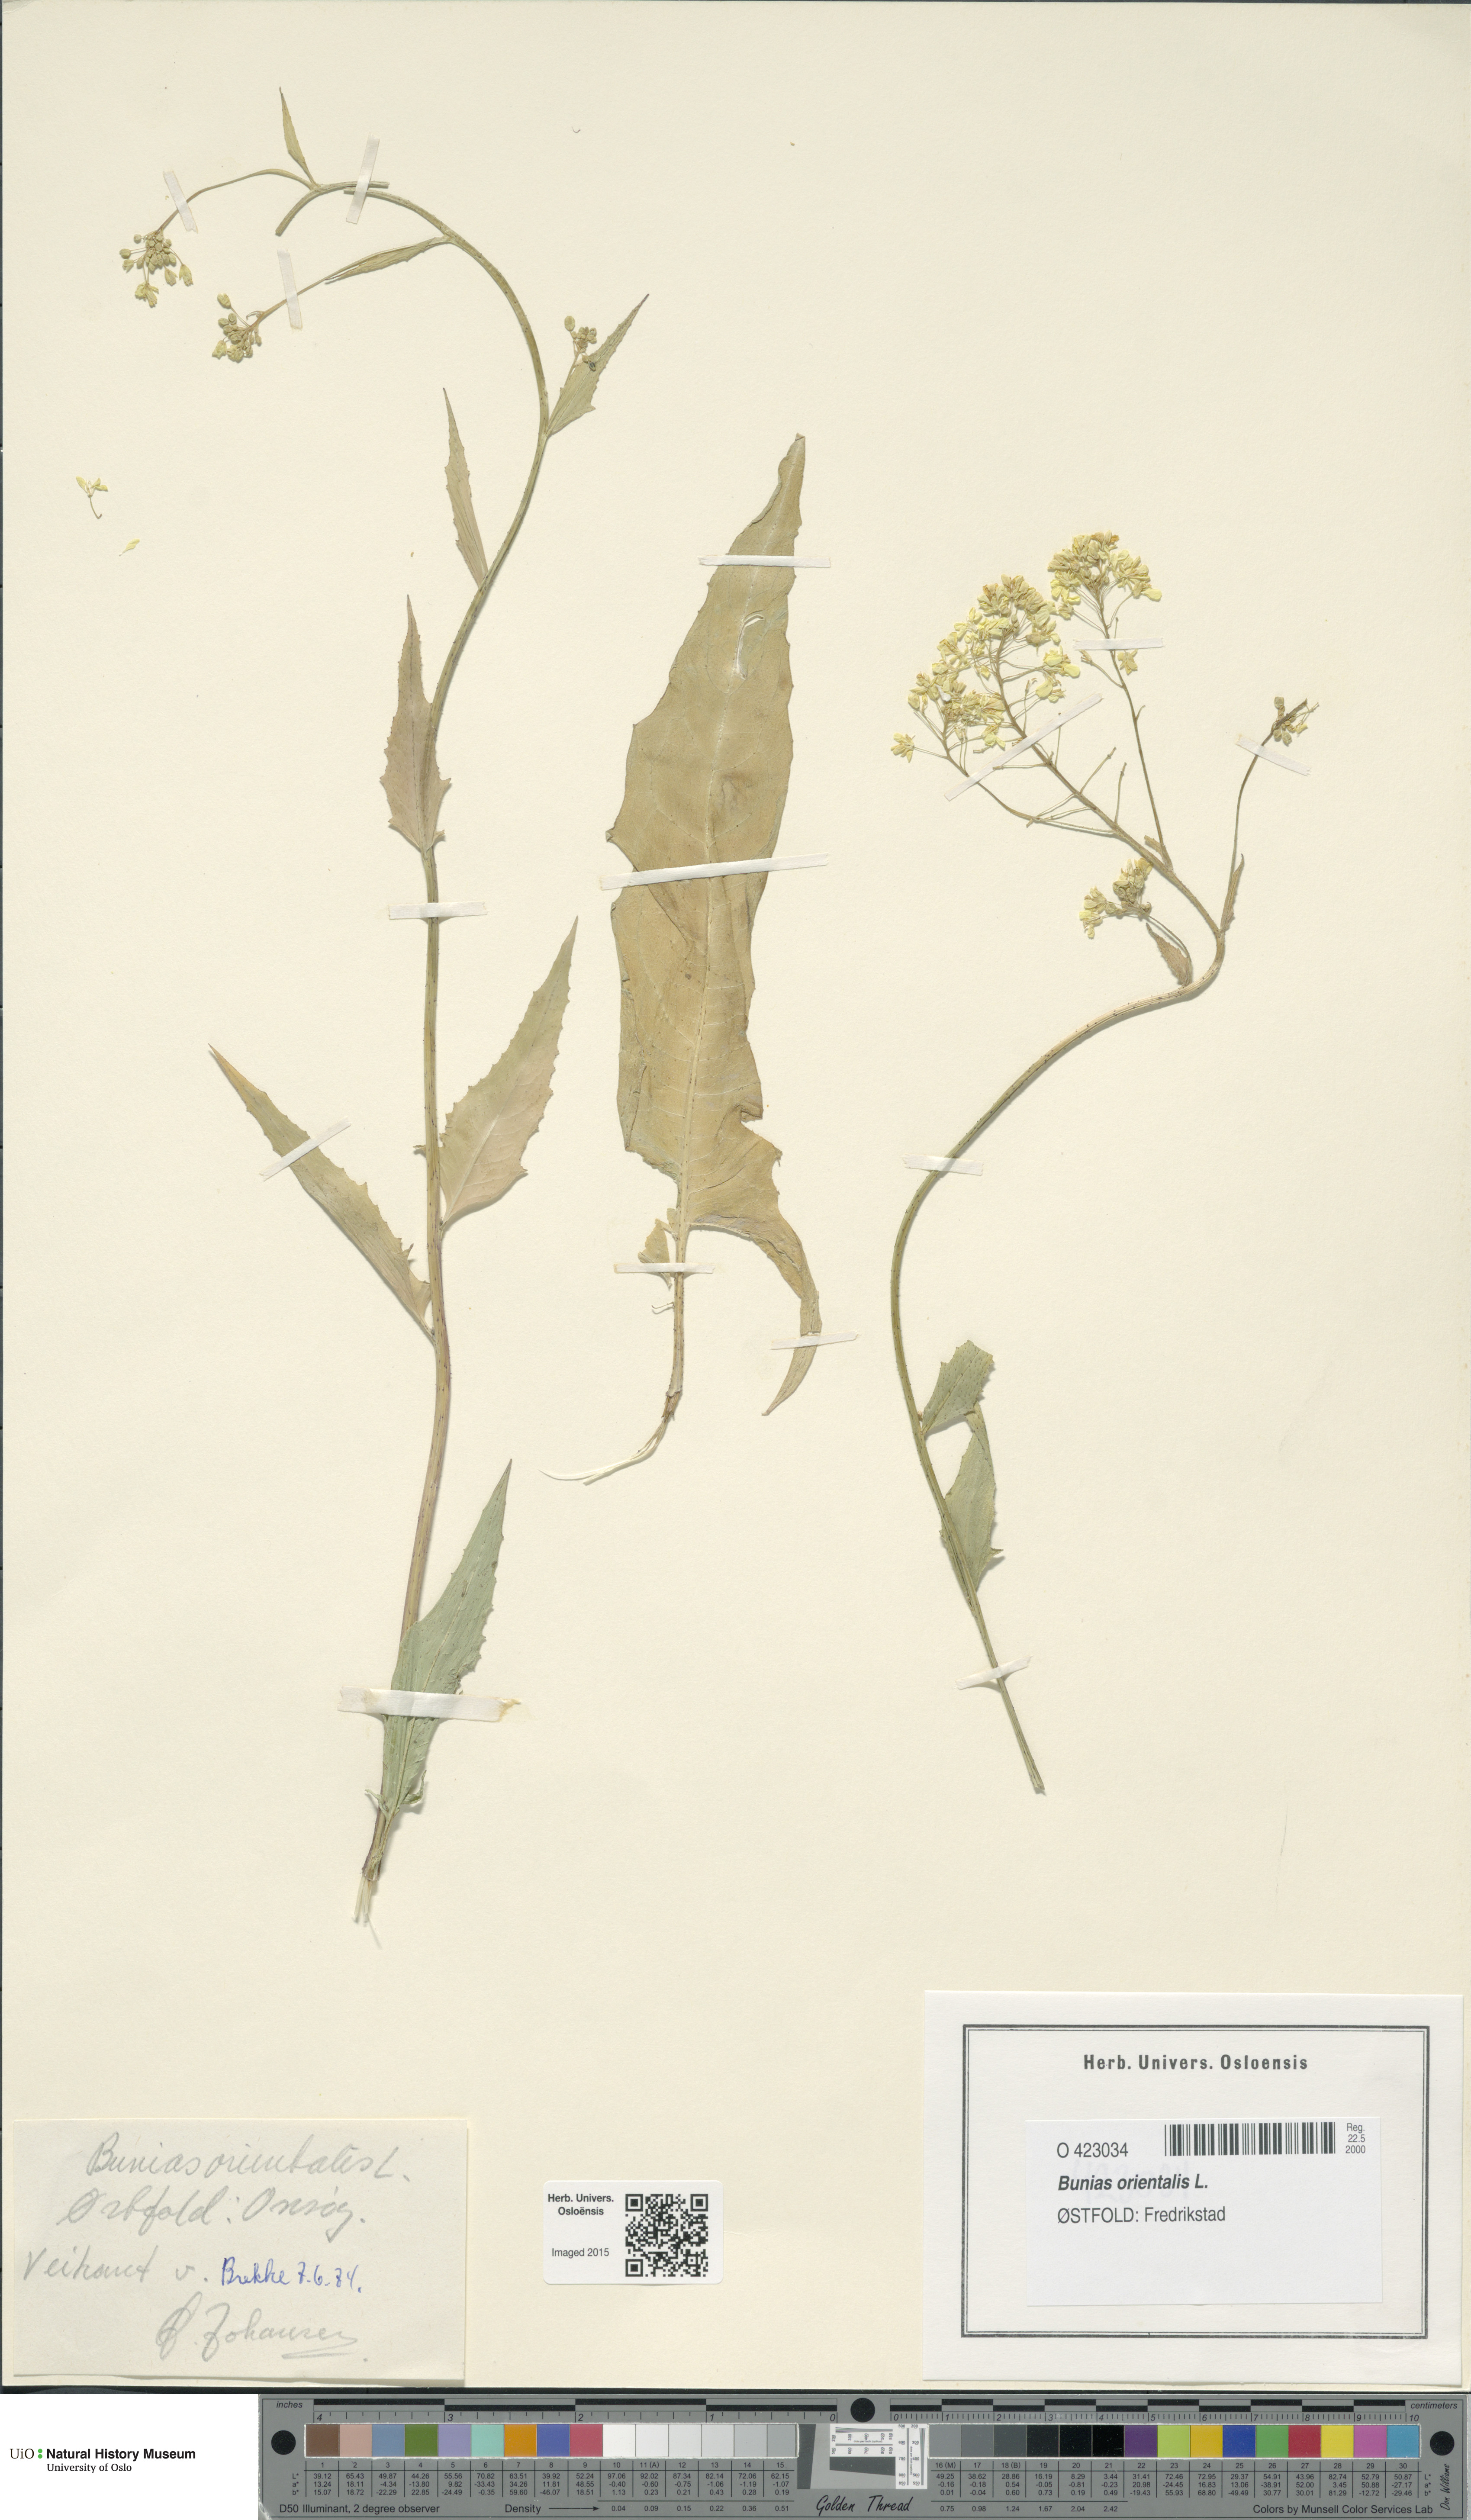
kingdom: Plantae
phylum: Tracheophyta
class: Magnoliopsida
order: Brassicales
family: Brassicaceae
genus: Bunias
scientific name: Bunias orientalis
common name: Warty-cabbage
